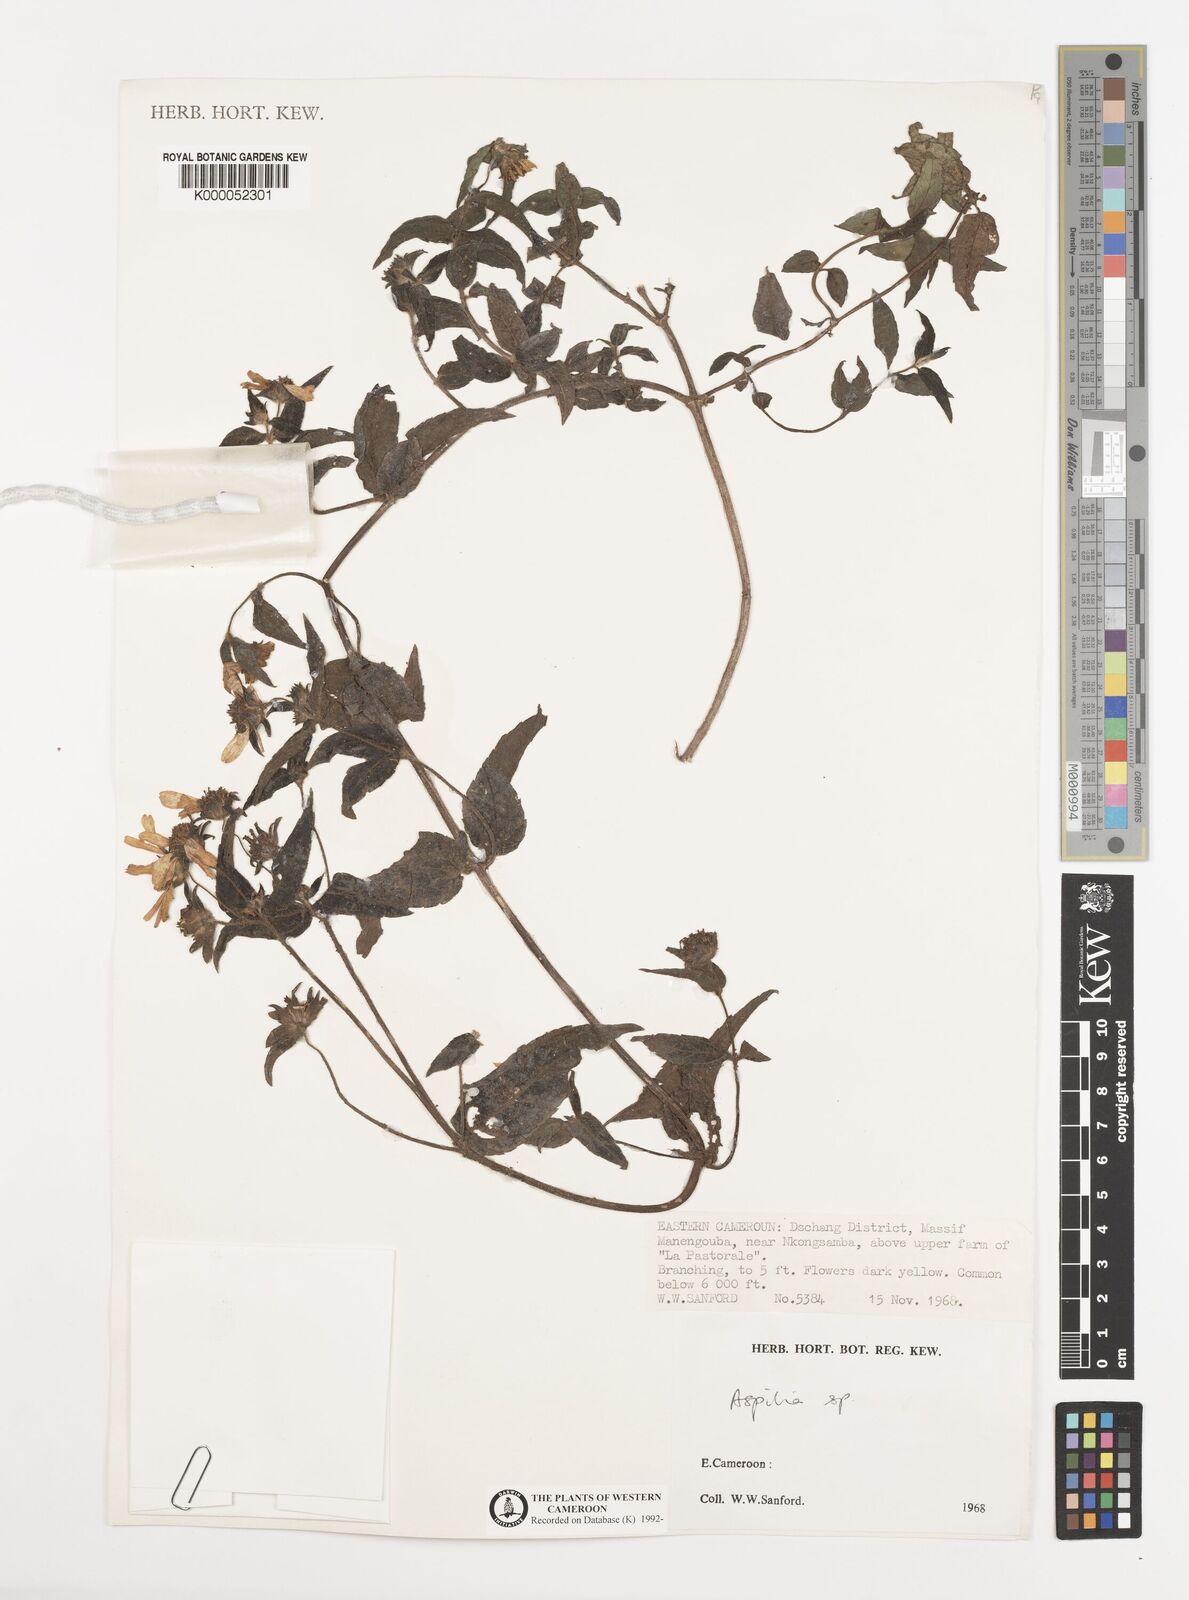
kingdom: Plantae
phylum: Tracheophyta
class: Magnoliopsida
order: Asterales
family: Asteraceae
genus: Aspilia
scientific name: Aspilia
